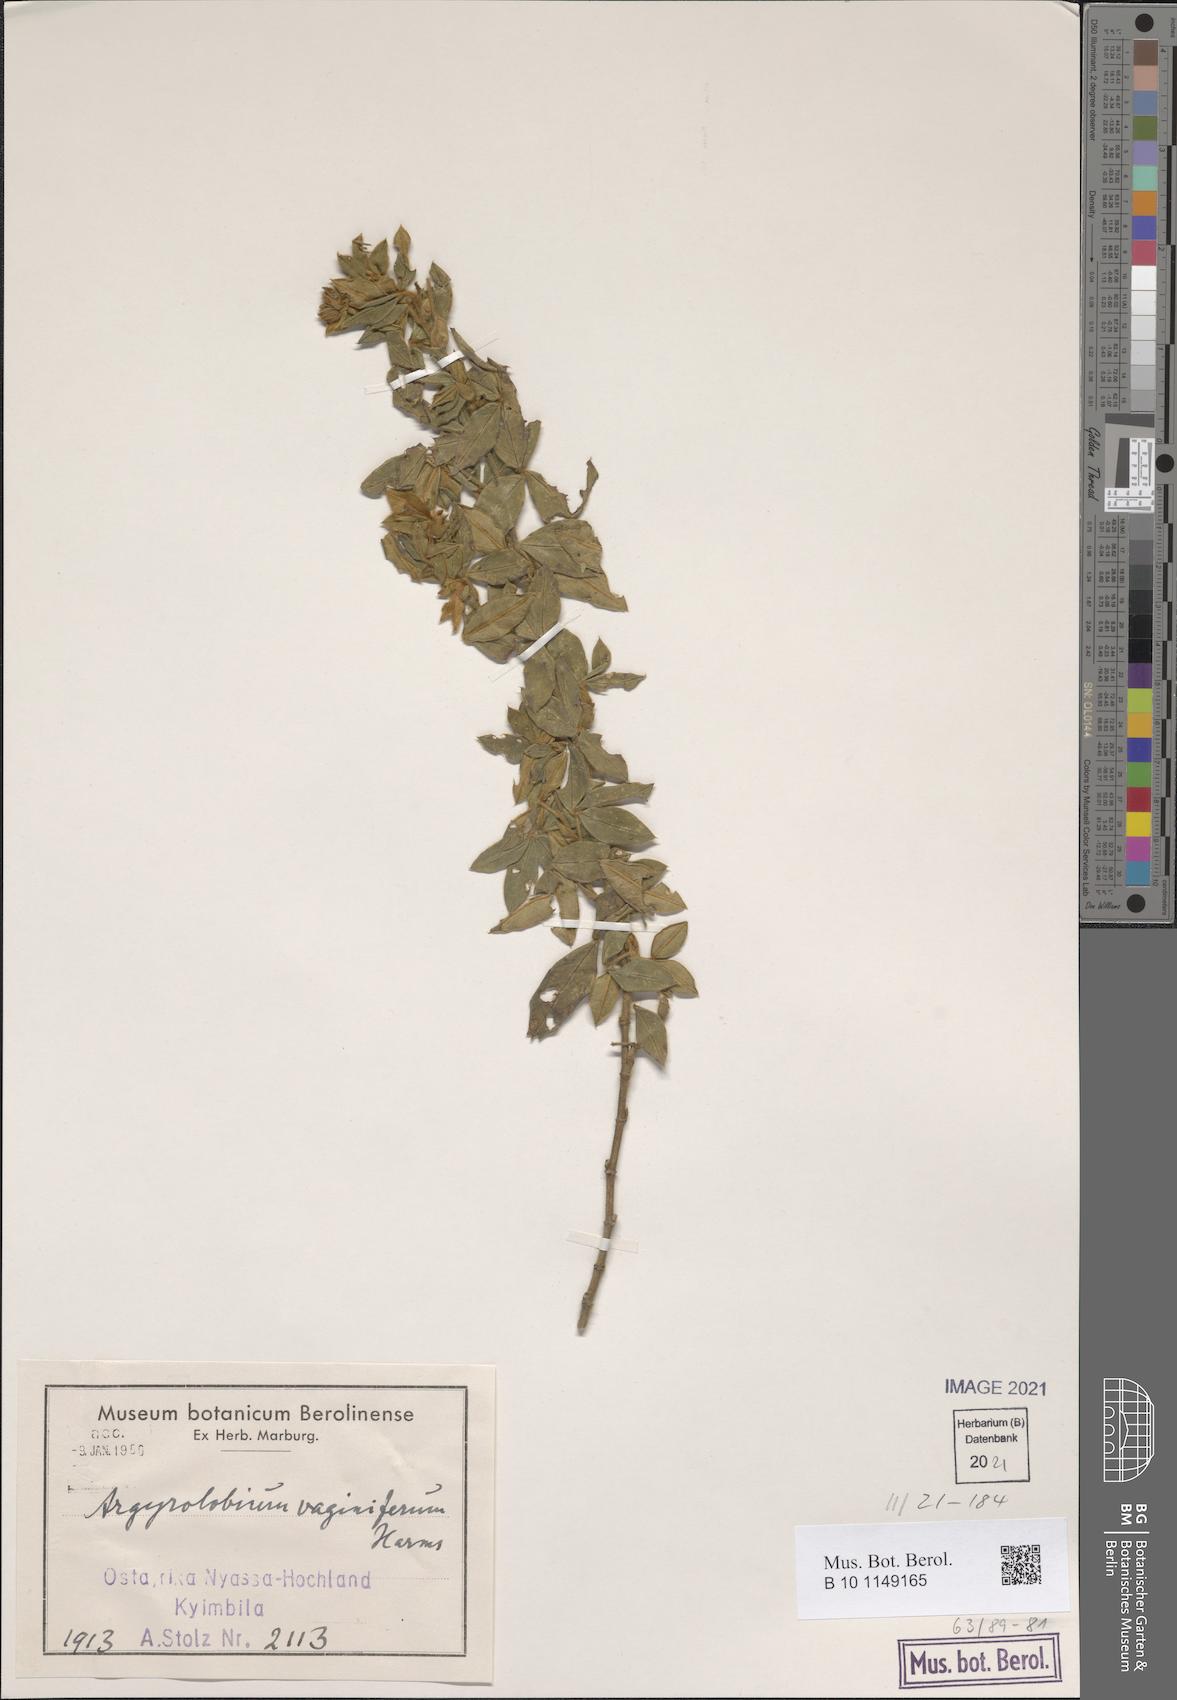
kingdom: Plantae
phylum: Tracheophyta
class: Magnoliopsida
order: Fabales
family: Fabaceae
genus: Argyrolobium
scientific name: Argyrolobium vaginiferum
